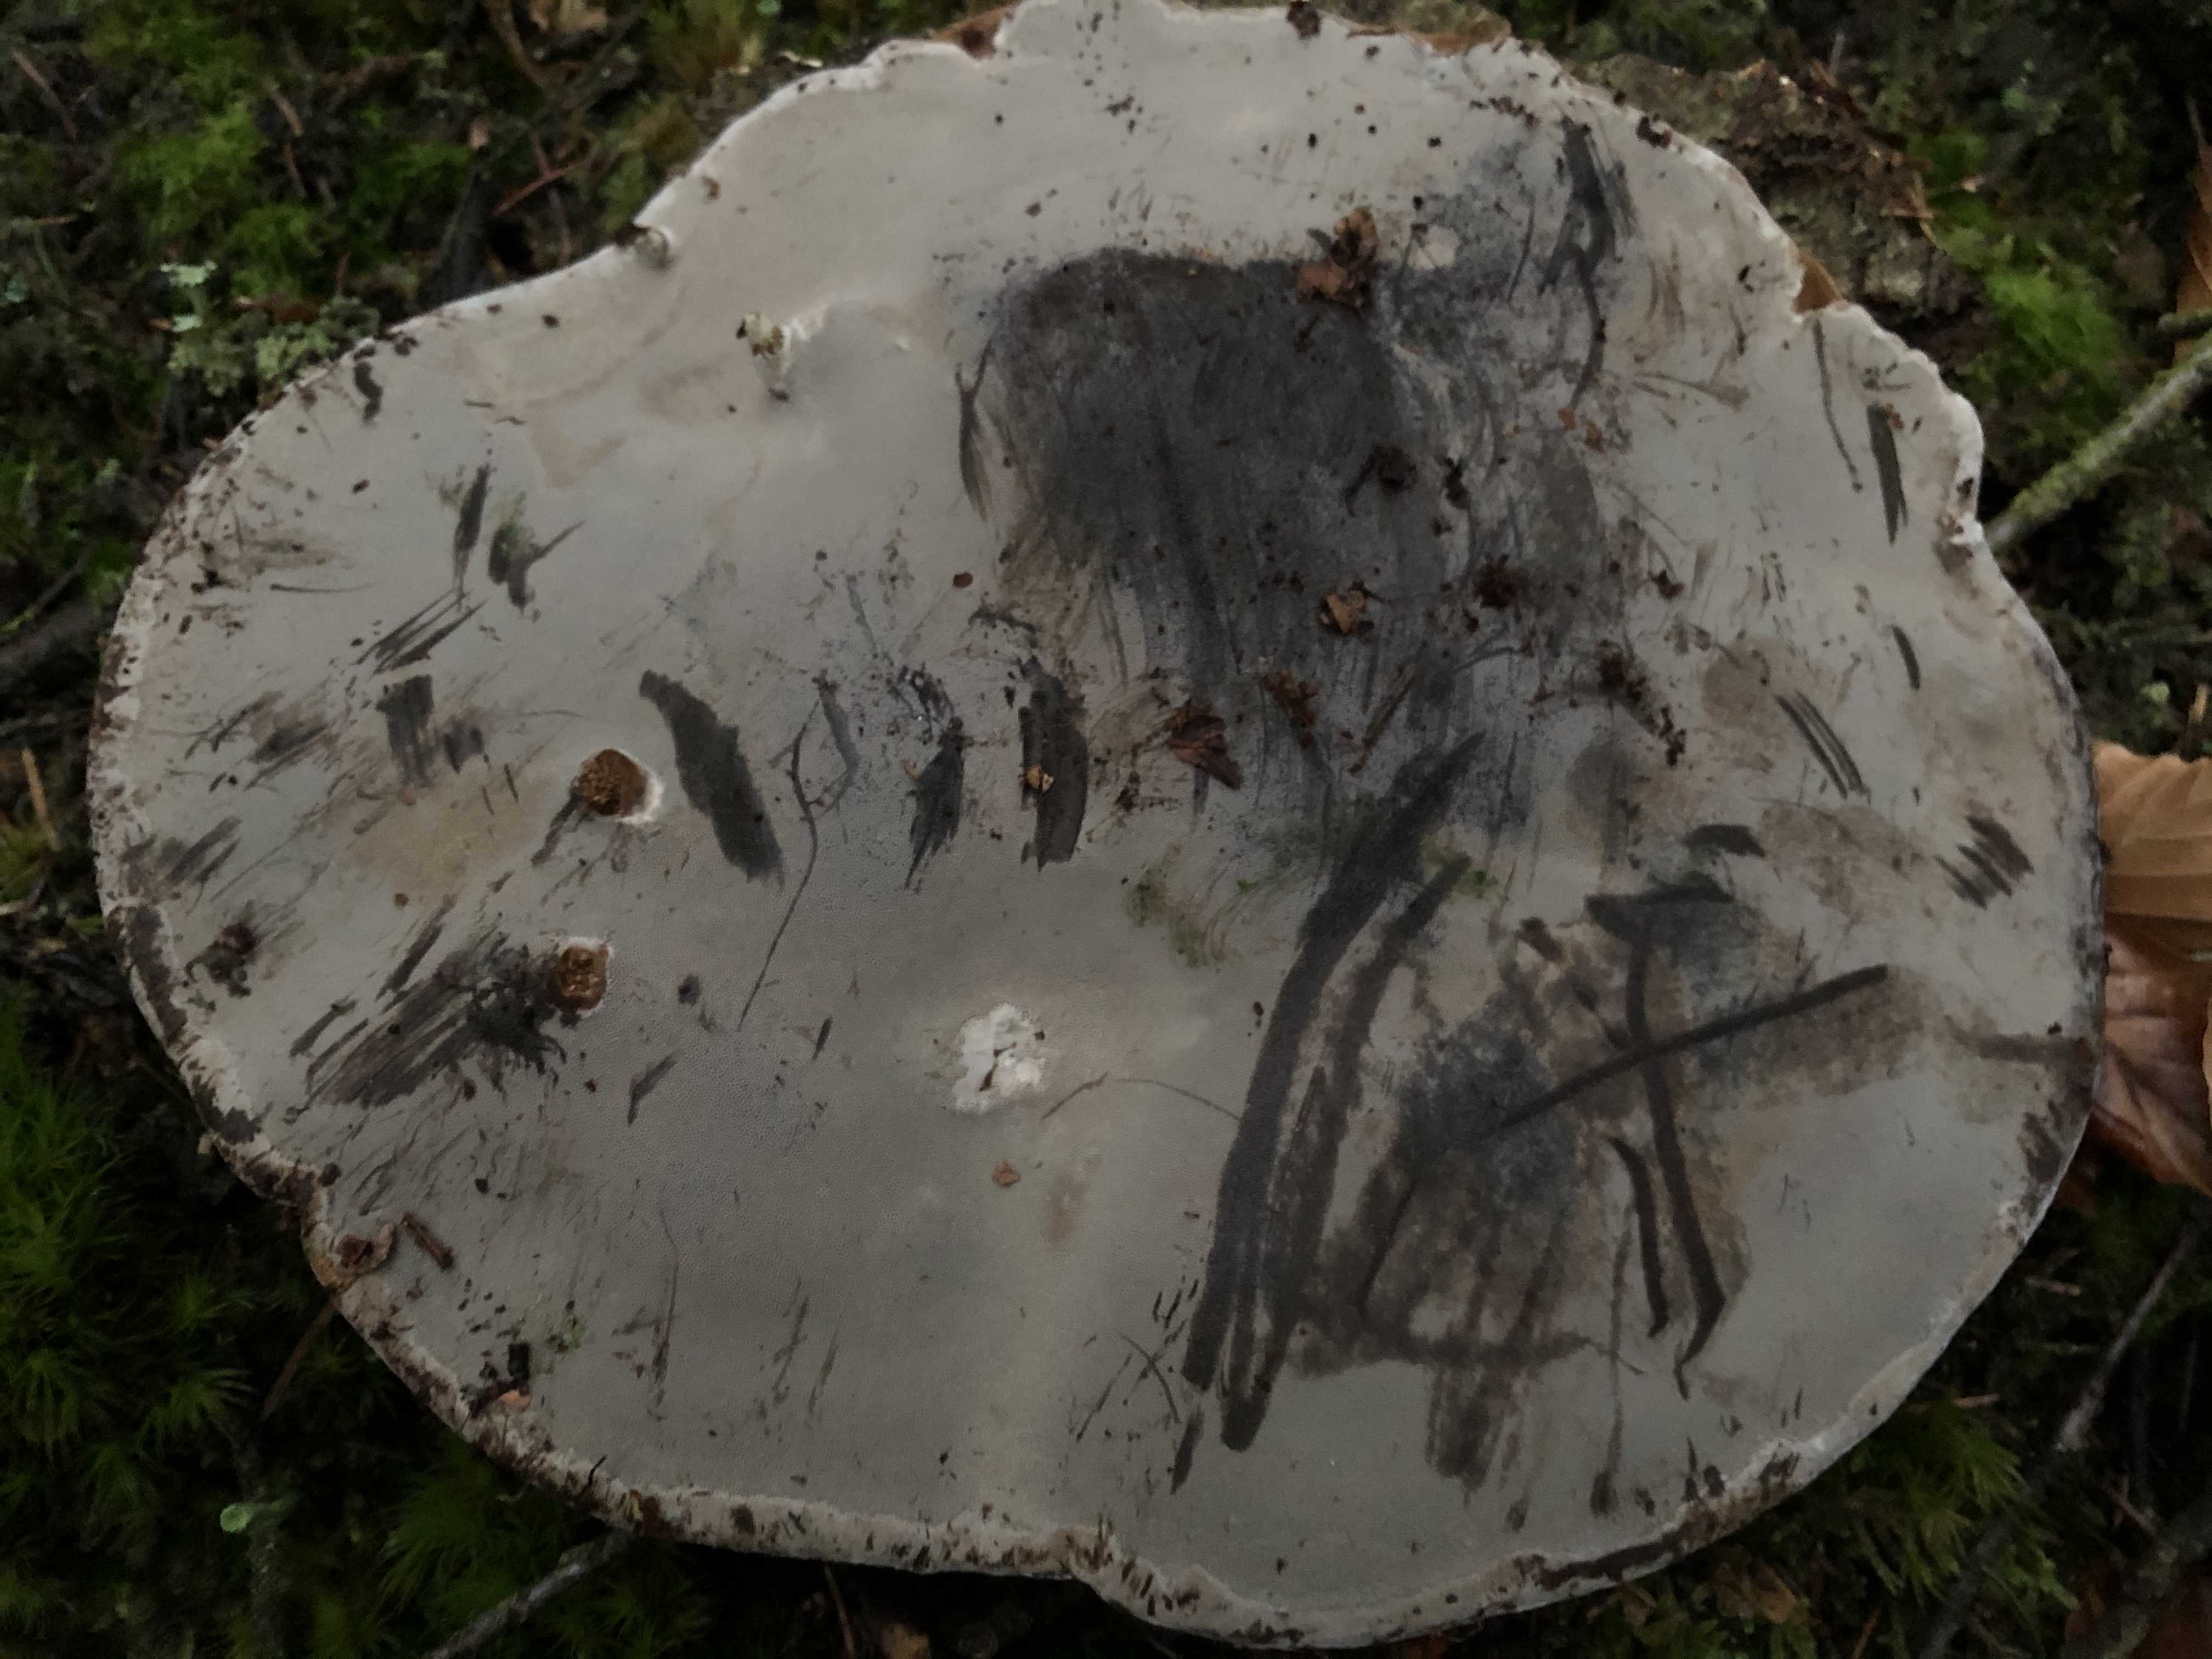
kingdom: Fungi
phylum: Basidiomycota
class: Agaricomycetes
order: Polyporales
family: Polyporaceae
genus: Fomes
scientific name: Fomes fomentarius
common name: tøndersvamp
